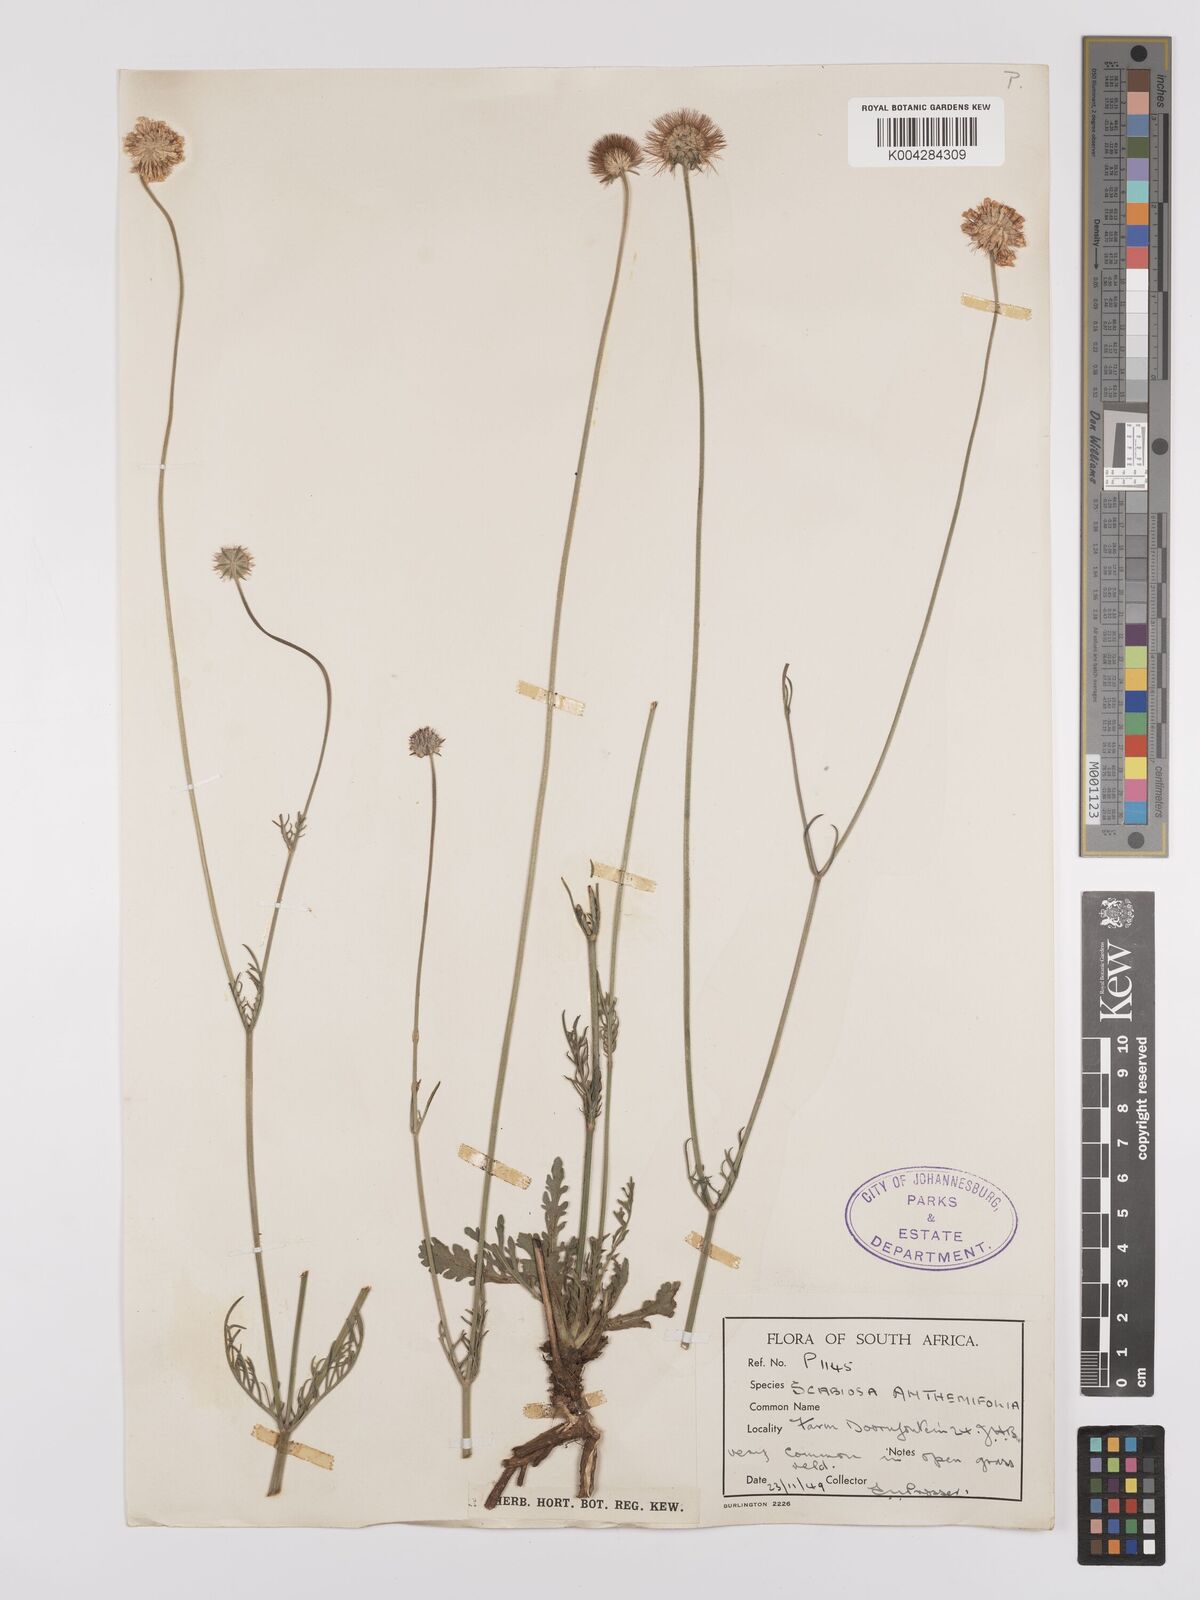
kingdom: Plantae
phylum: Tracheophyta
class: Magnoliopsida
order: Dipsacales
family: Caprifoliaceae
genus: Scabiosa
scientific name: Scabiosa austroafricana
